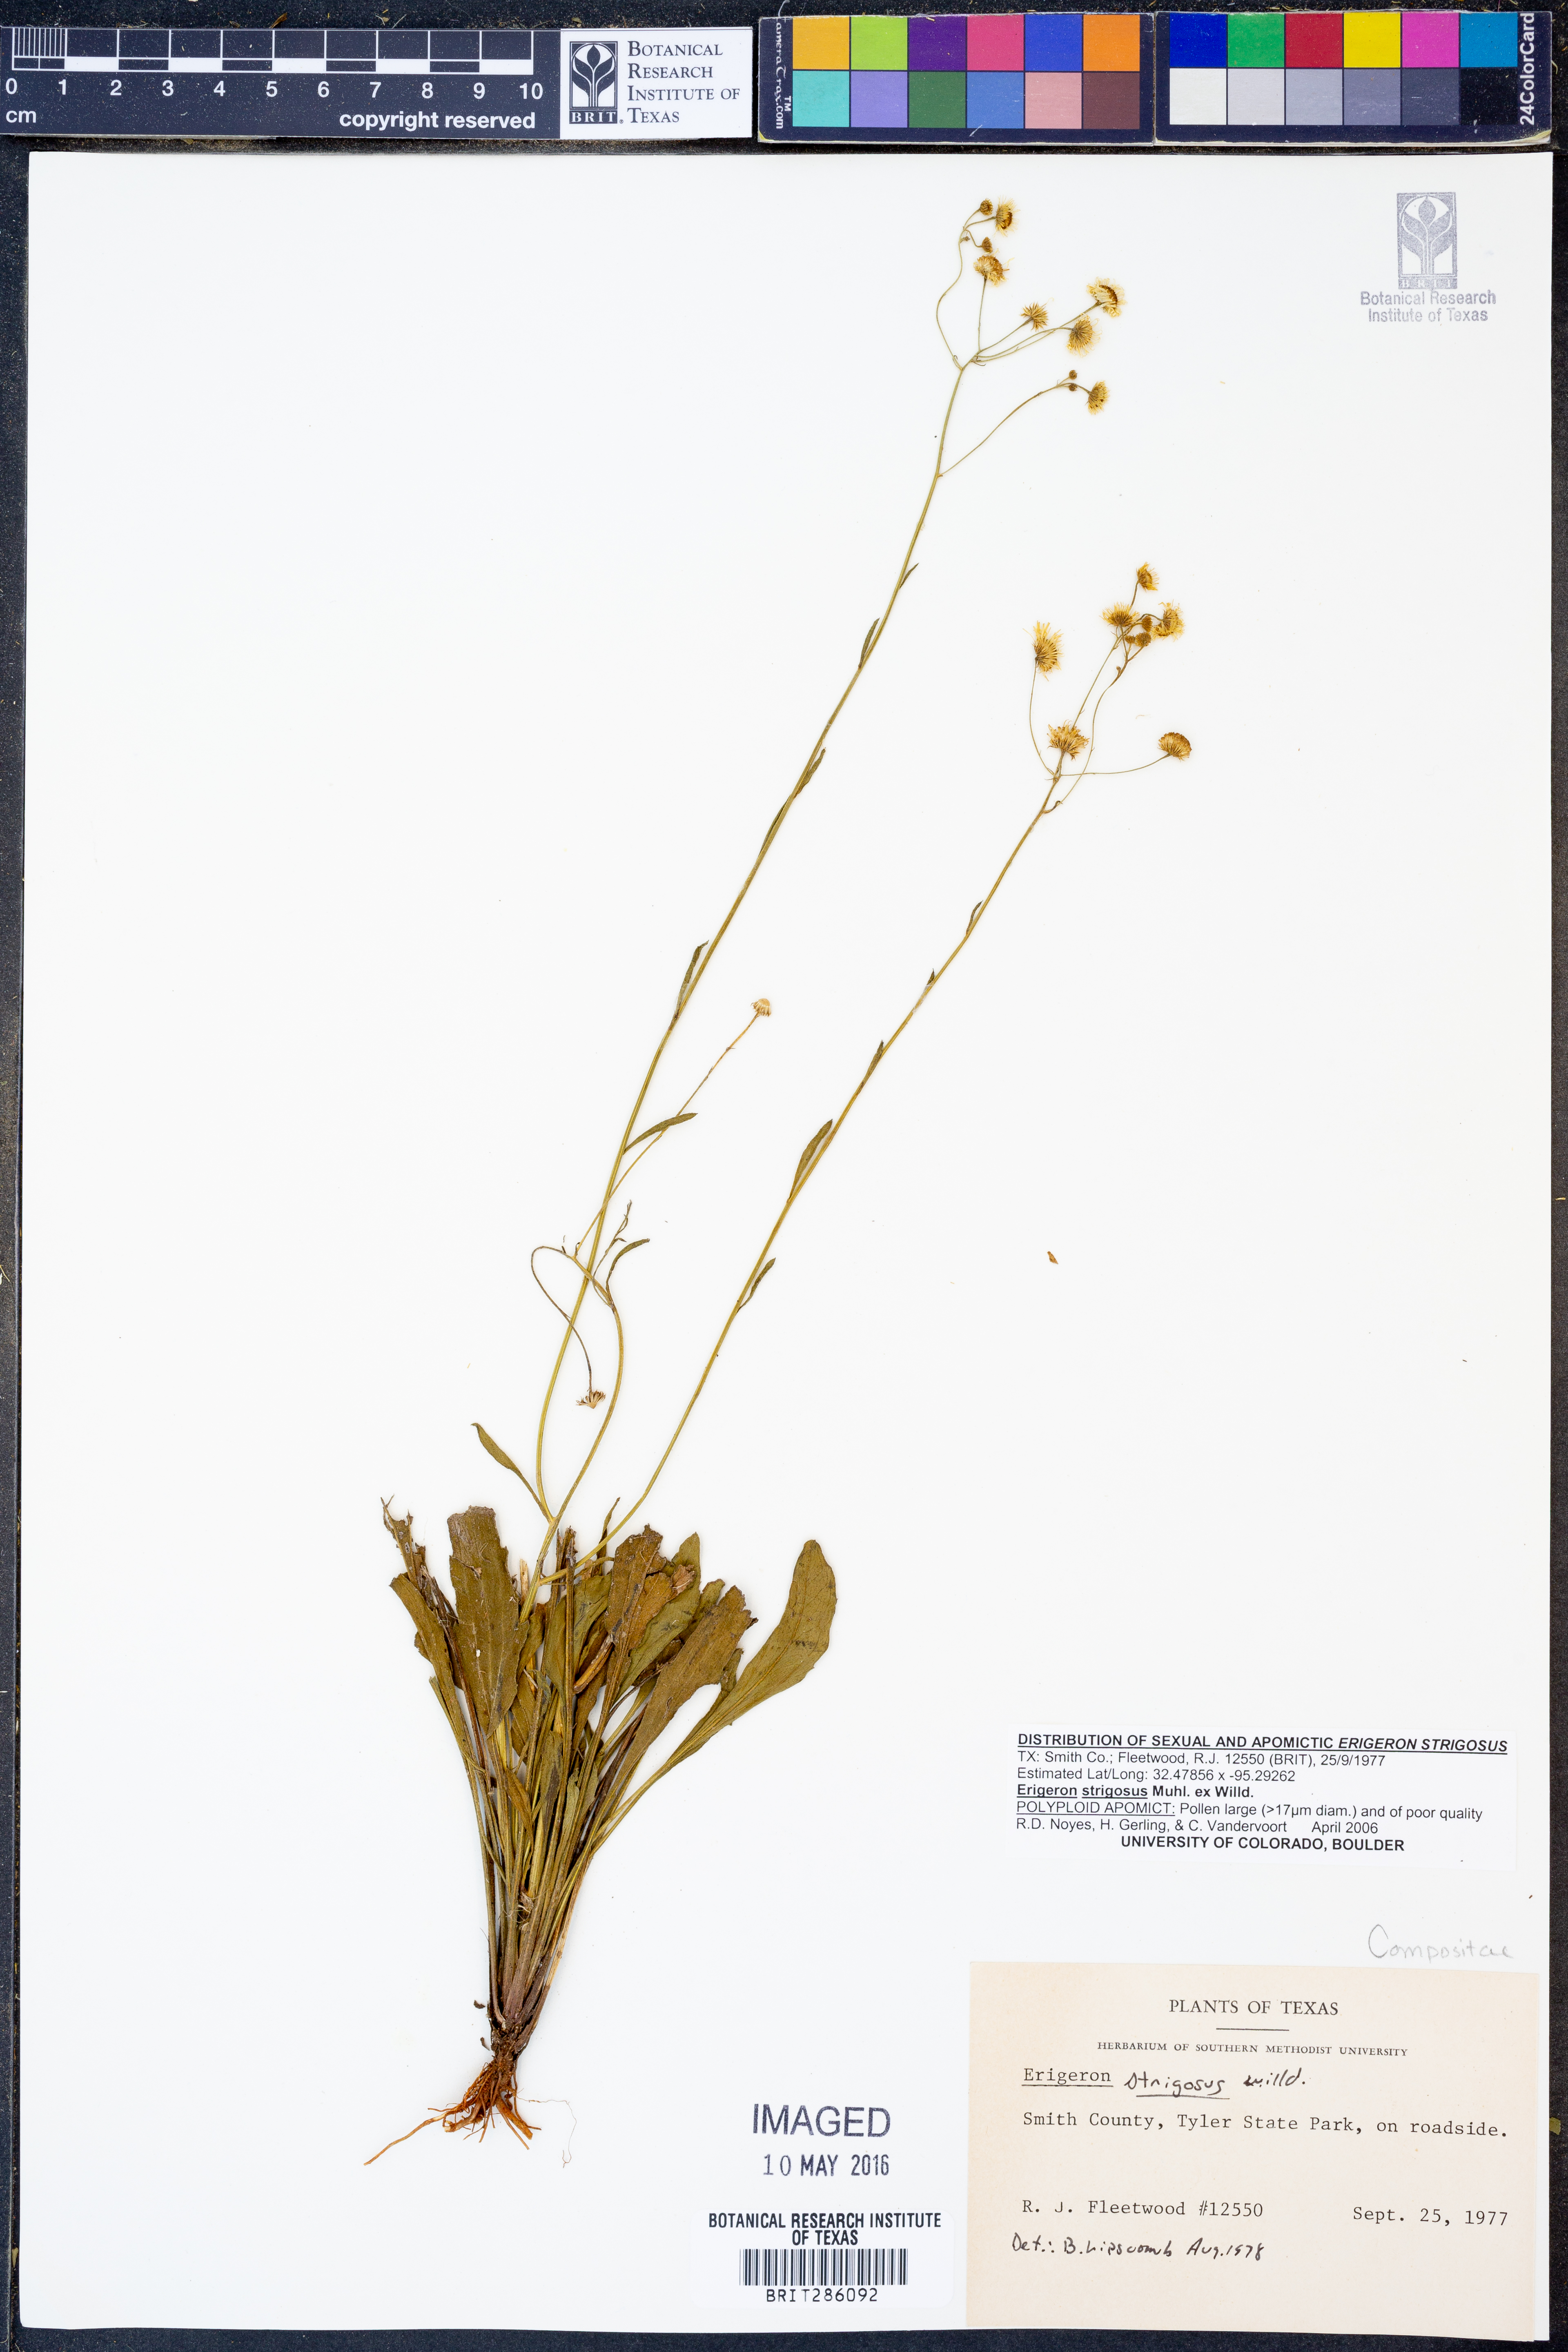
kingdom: Plantae
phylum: Tracheophyta
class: Magnoliopsida
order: Asterales
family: Asteraceae
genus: Erigeron
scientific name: Erigeron strigosus
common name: Common eastern fleabane
